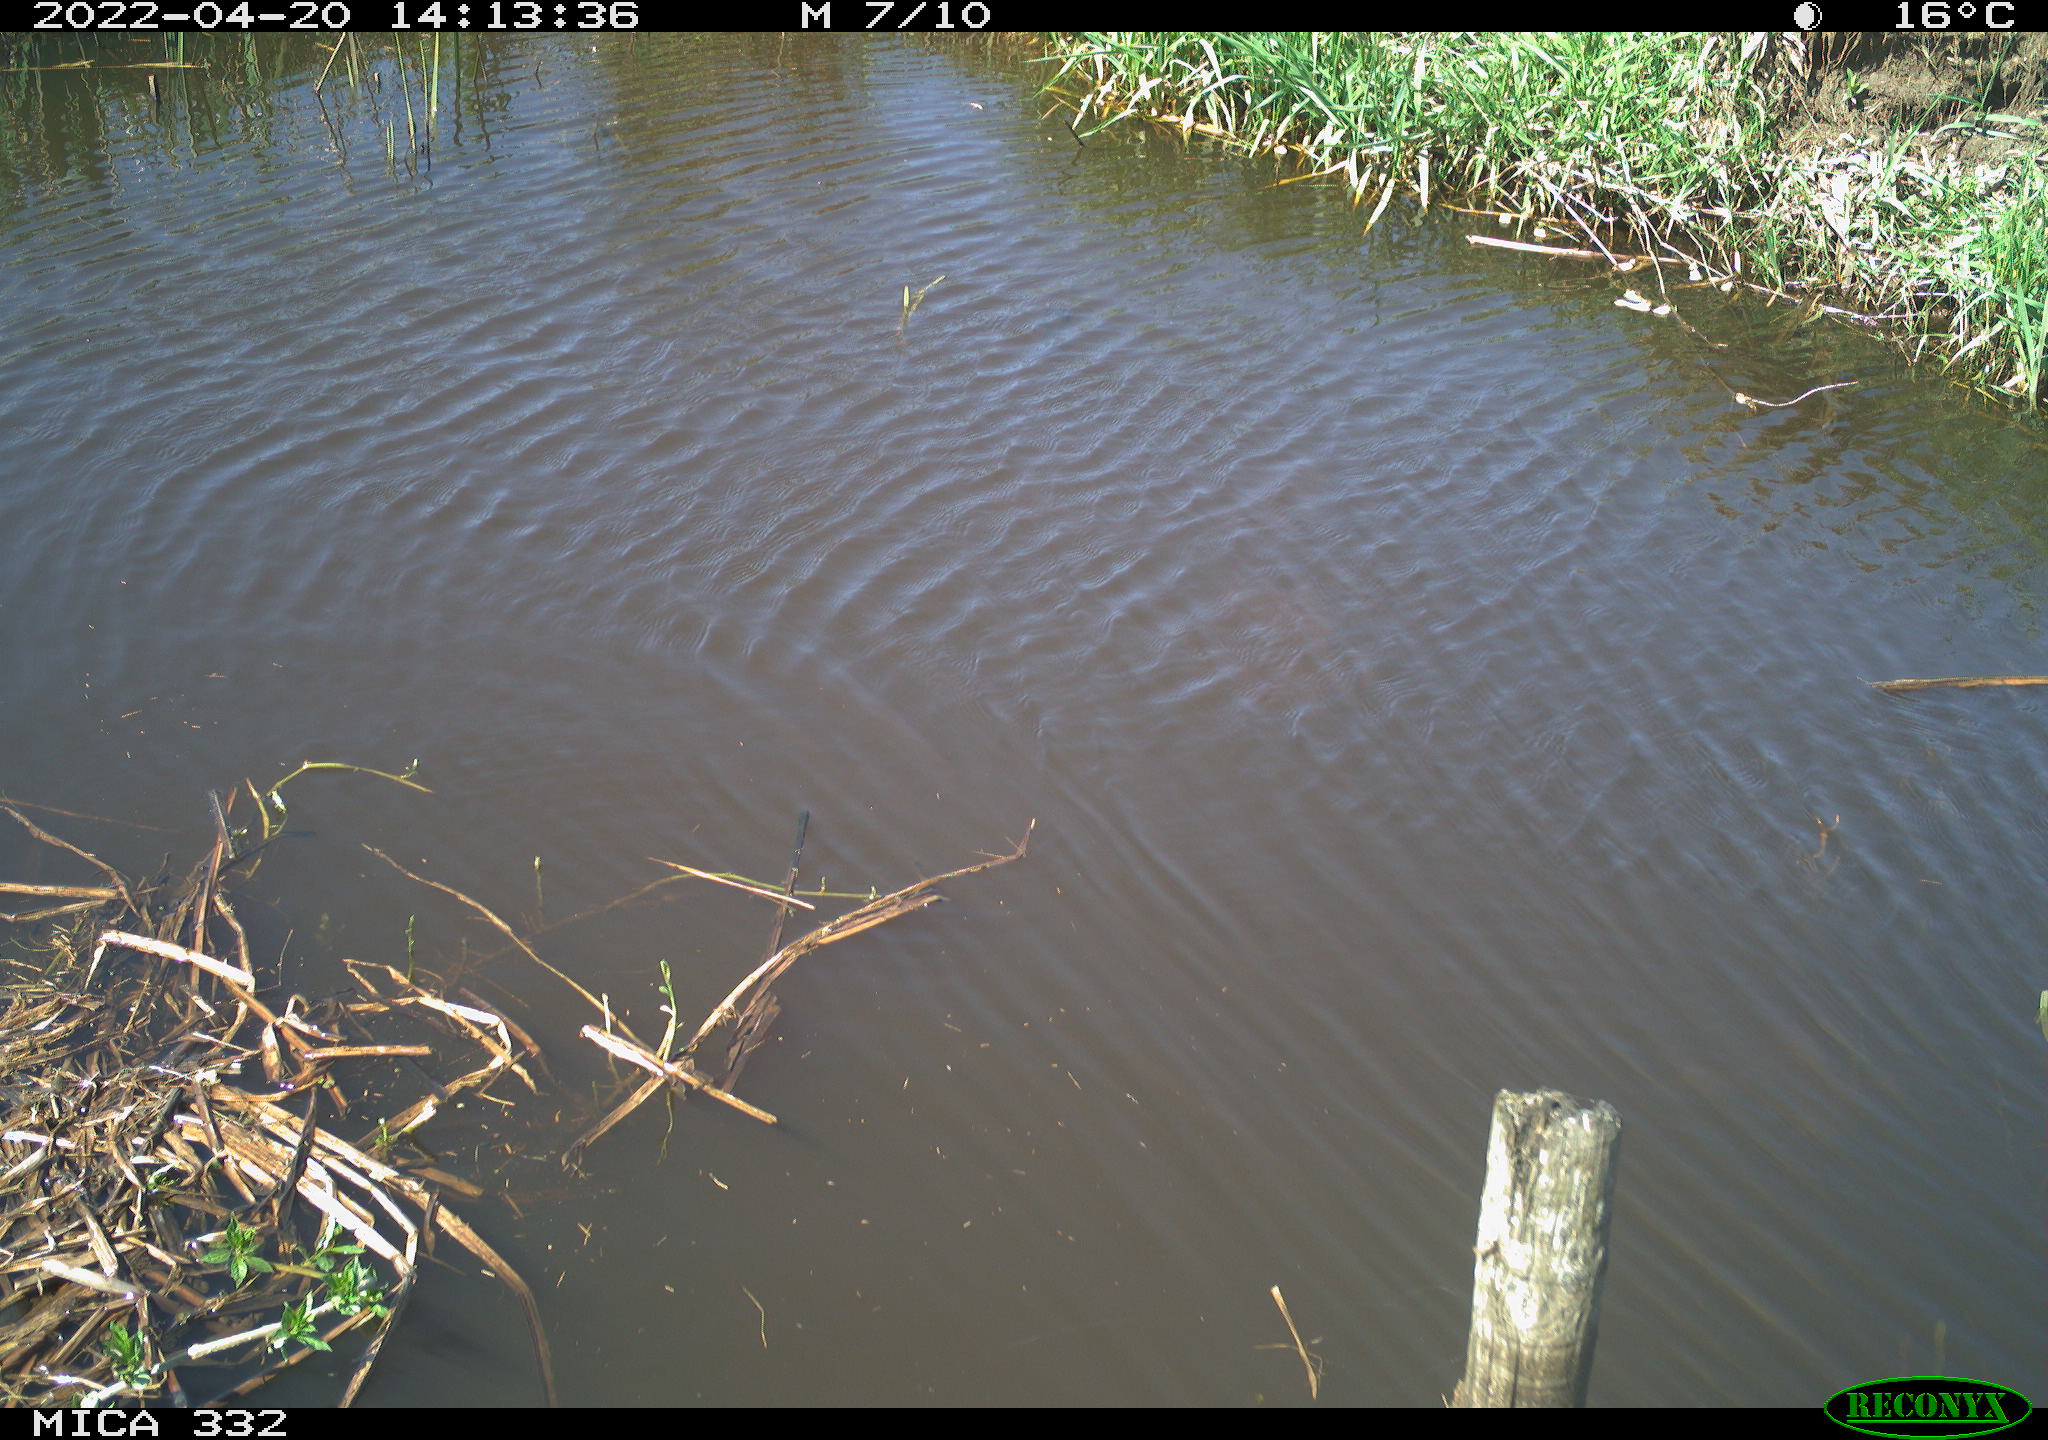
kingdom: Animalia
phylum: Chordata
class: Aves
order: Gruiformes
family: Rallidae
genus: Gallinula
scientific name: Gallinula chloropus
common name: Common moorhen
